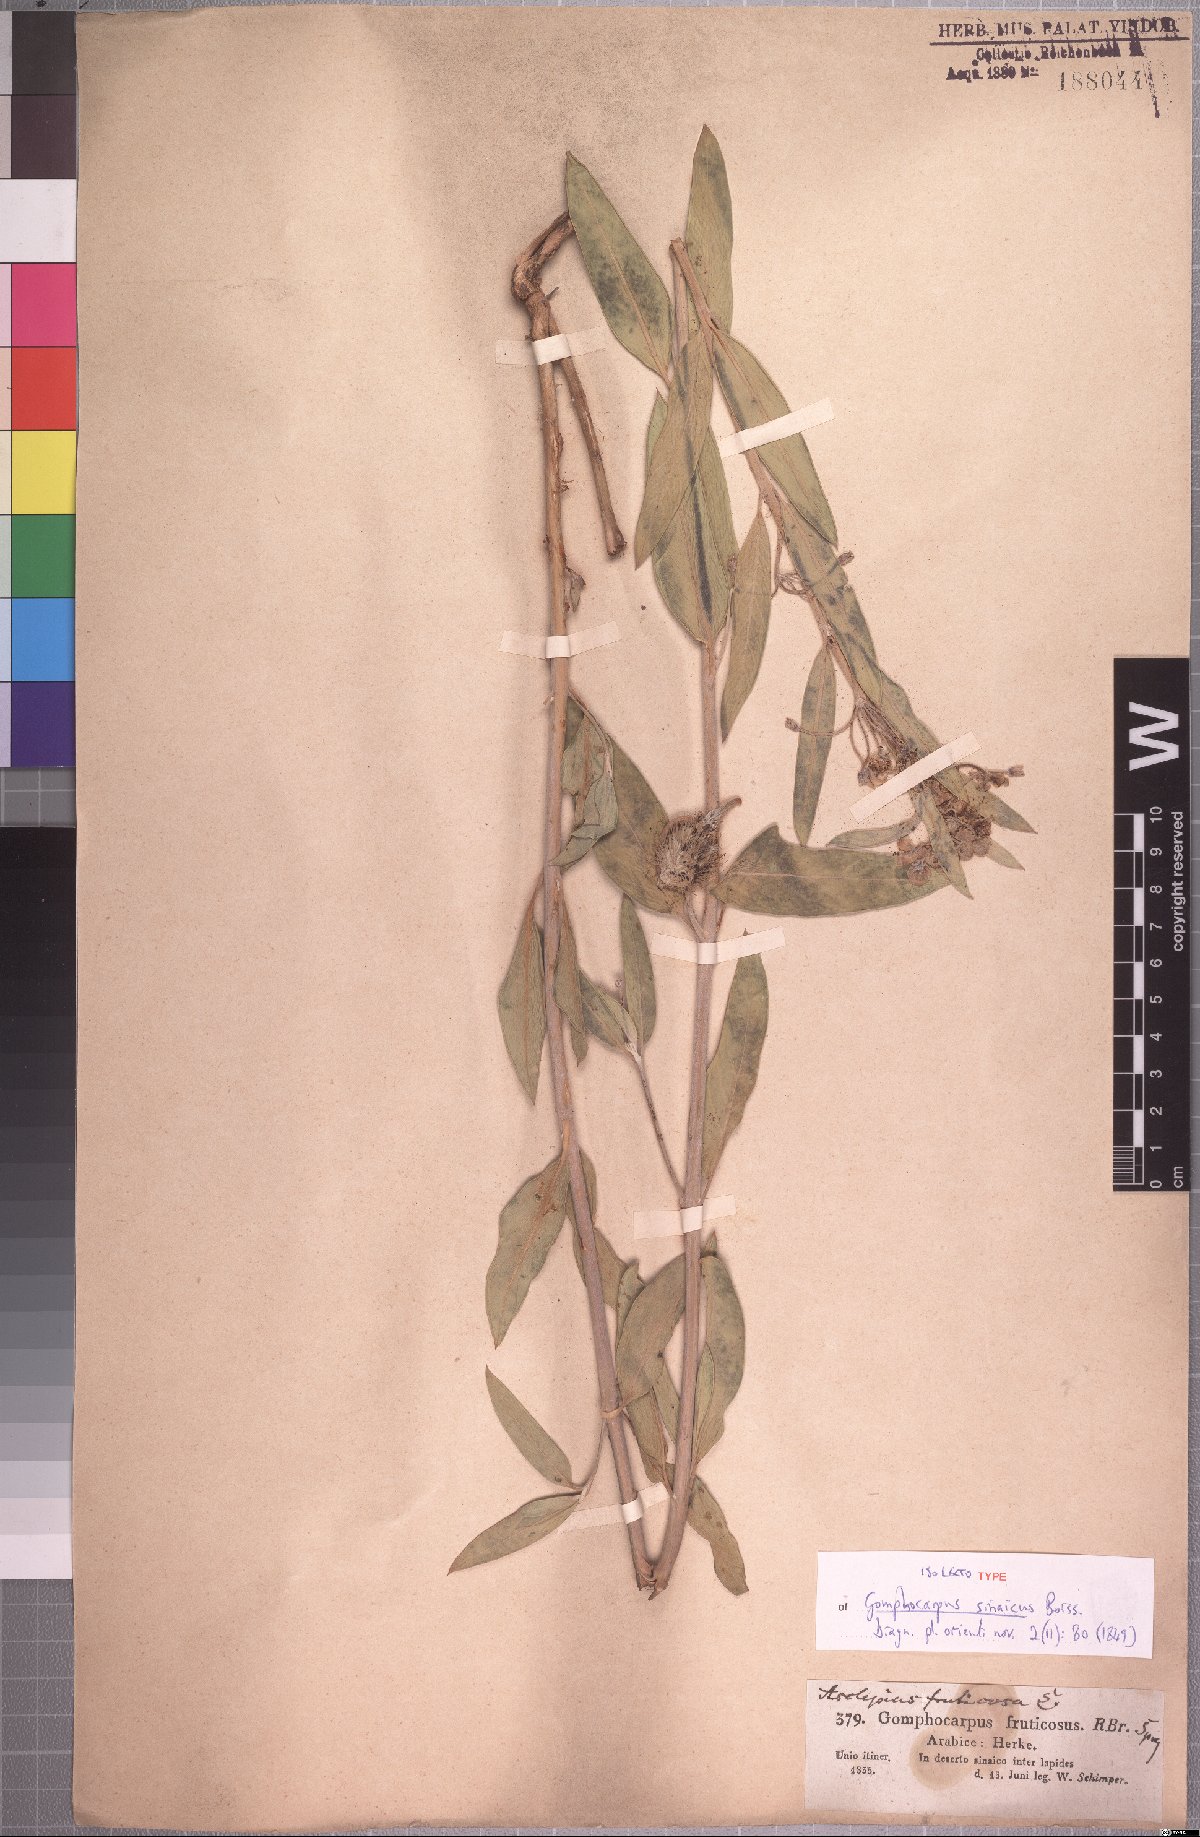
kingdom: Plantae
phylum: Tracheophyta
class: Magnoliopsida
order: Gentianales
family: Apocynaceae
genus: Gomphocarpus
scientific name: Gomphocarpus sinaicus
